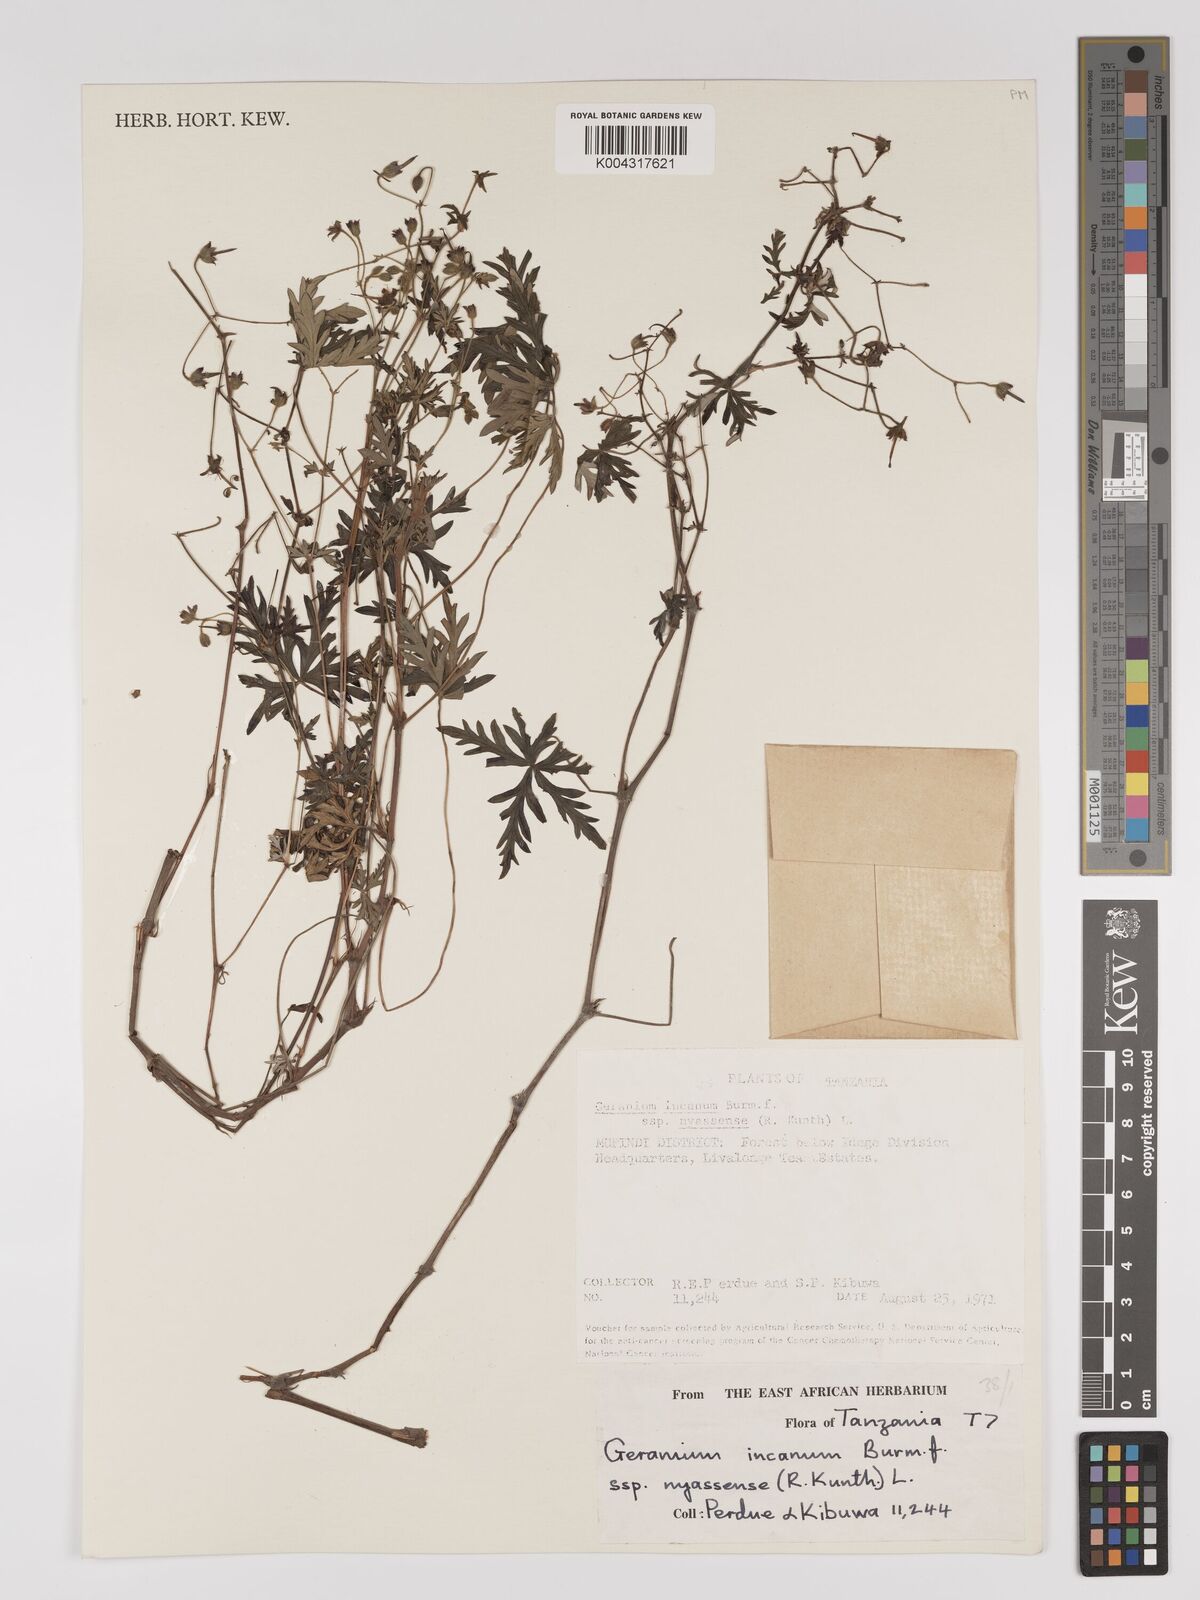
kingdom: Plantae
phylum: Tracheophyta
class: Magnoliopsida
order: Geraniales
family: Geraniaceae
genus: Geranium
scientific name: Geranium incanum
